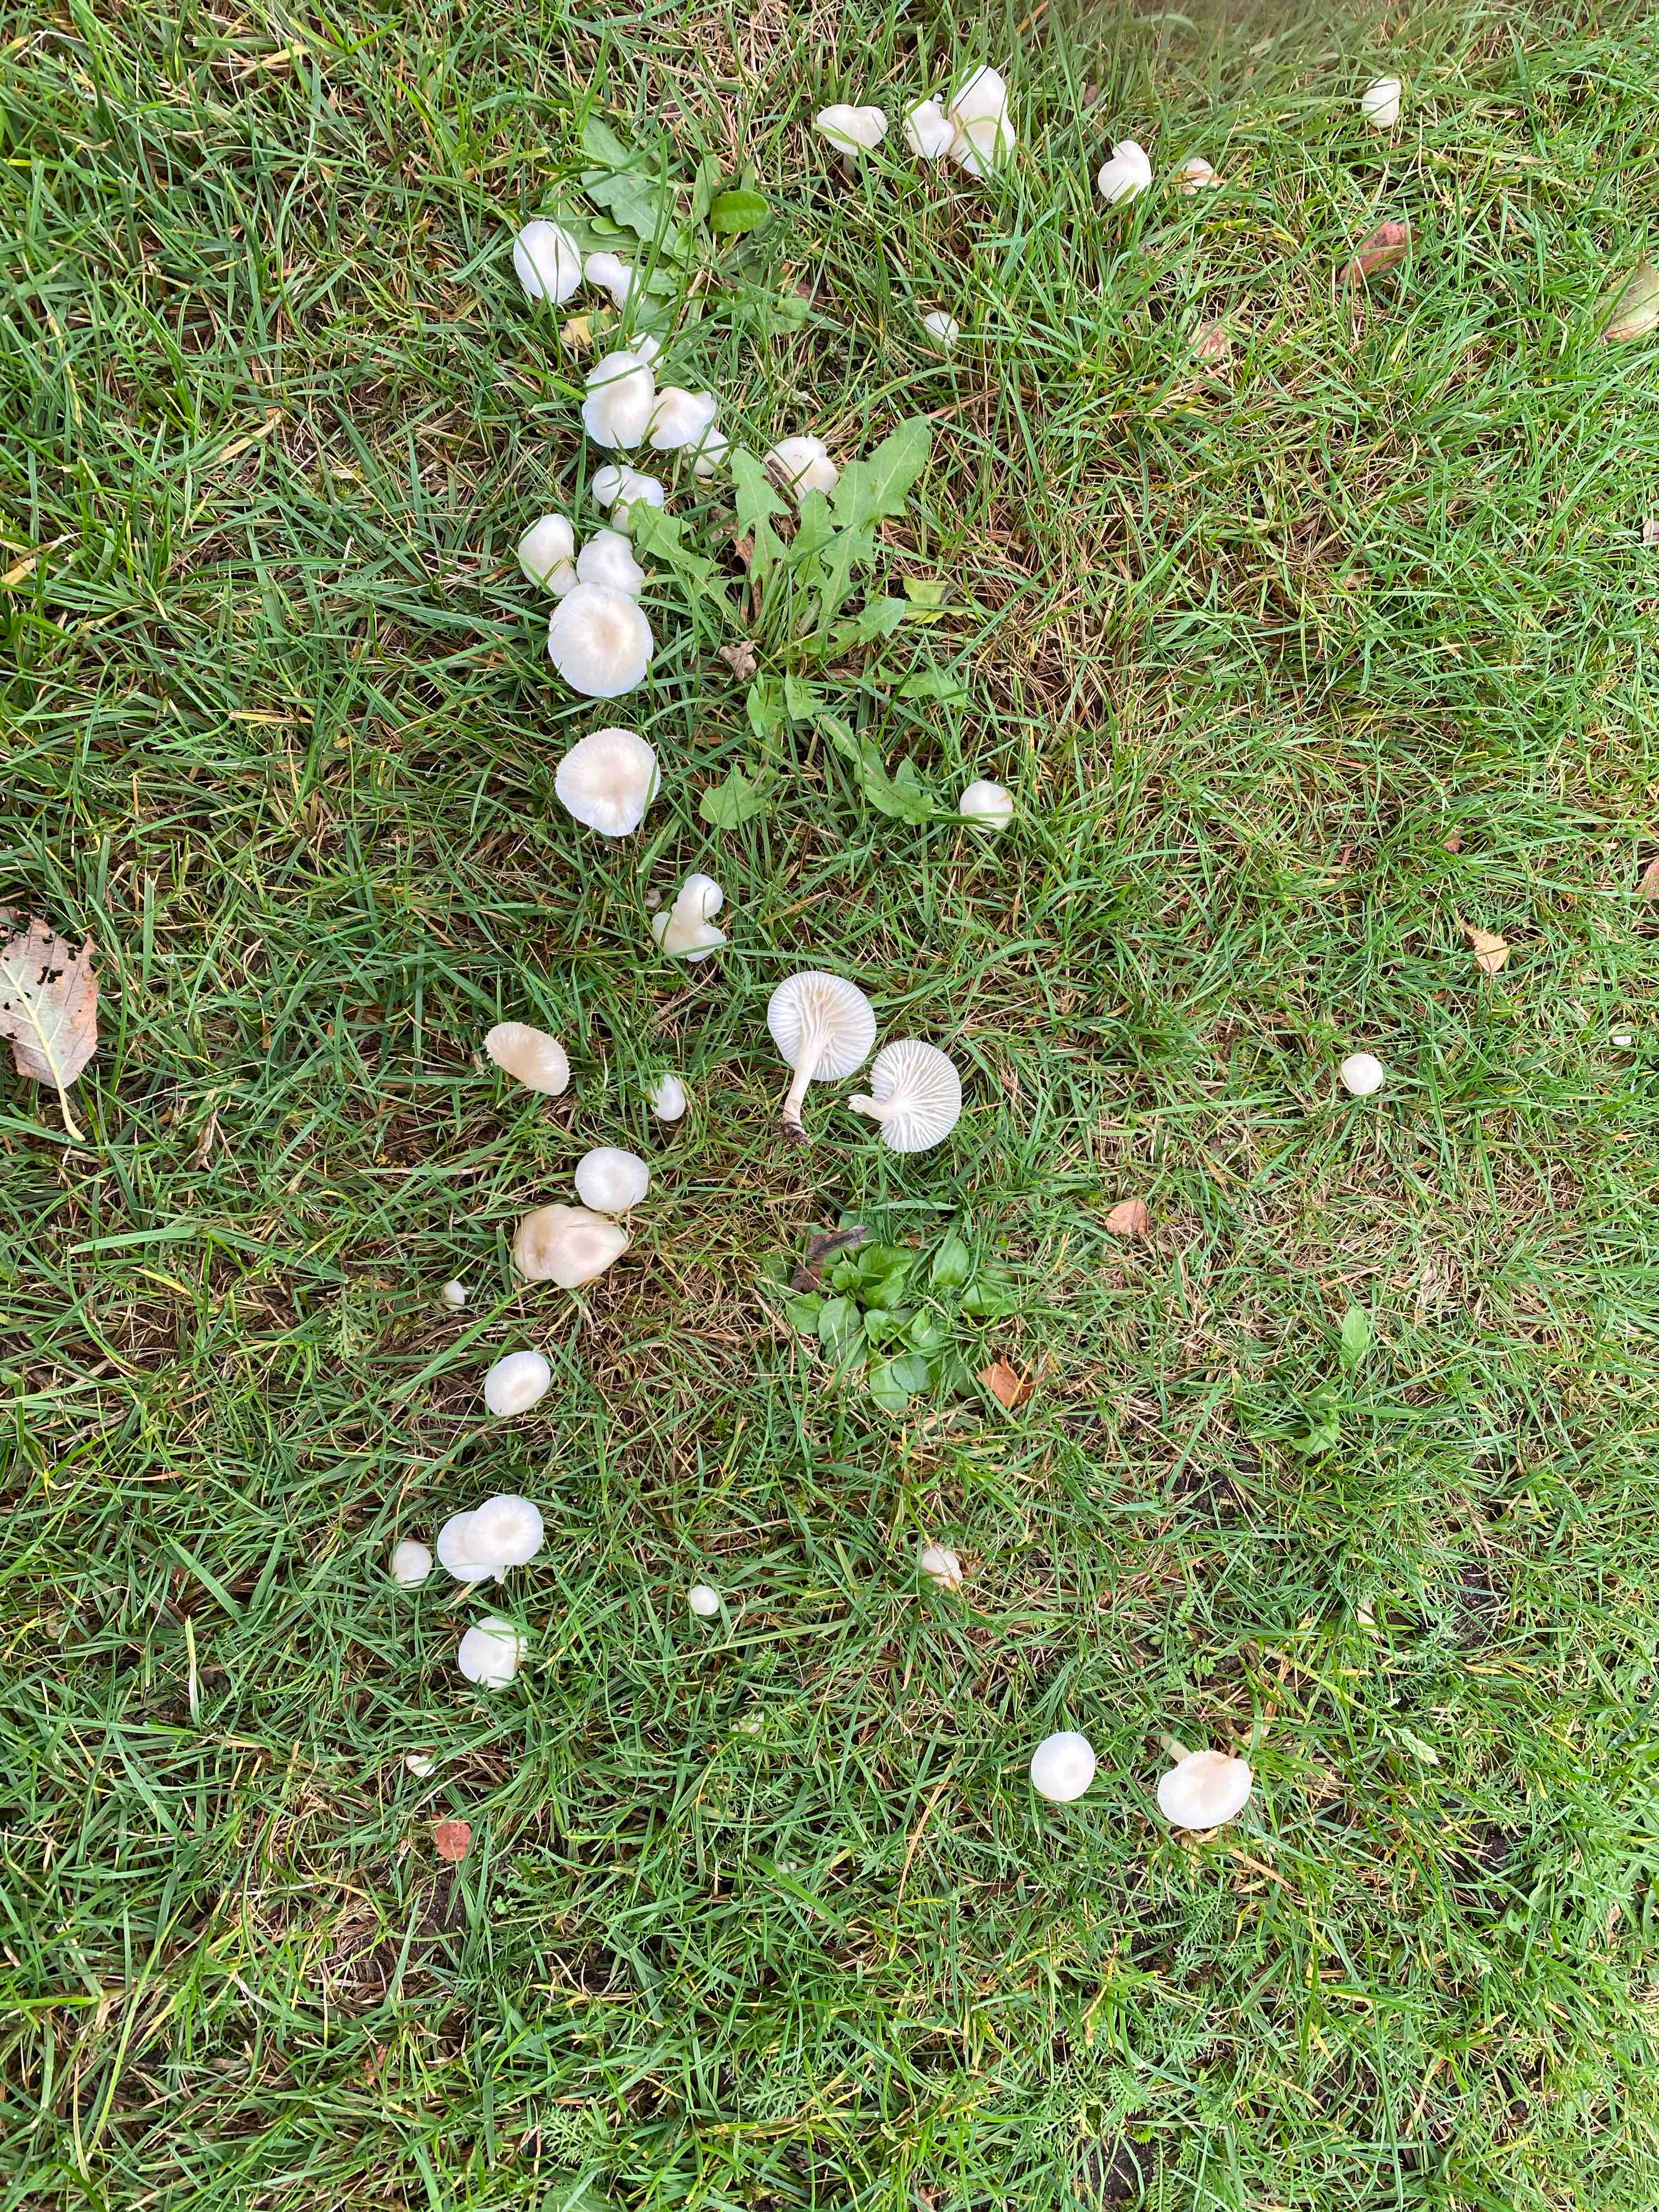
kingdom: Fungi
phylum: Basidiomycota
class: Agaricomycetes
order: Agaricales
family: Hygrophoraceae
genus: Cuphophyllus
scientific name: Cuphophyllus virgineus
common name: snehvid vokshat
